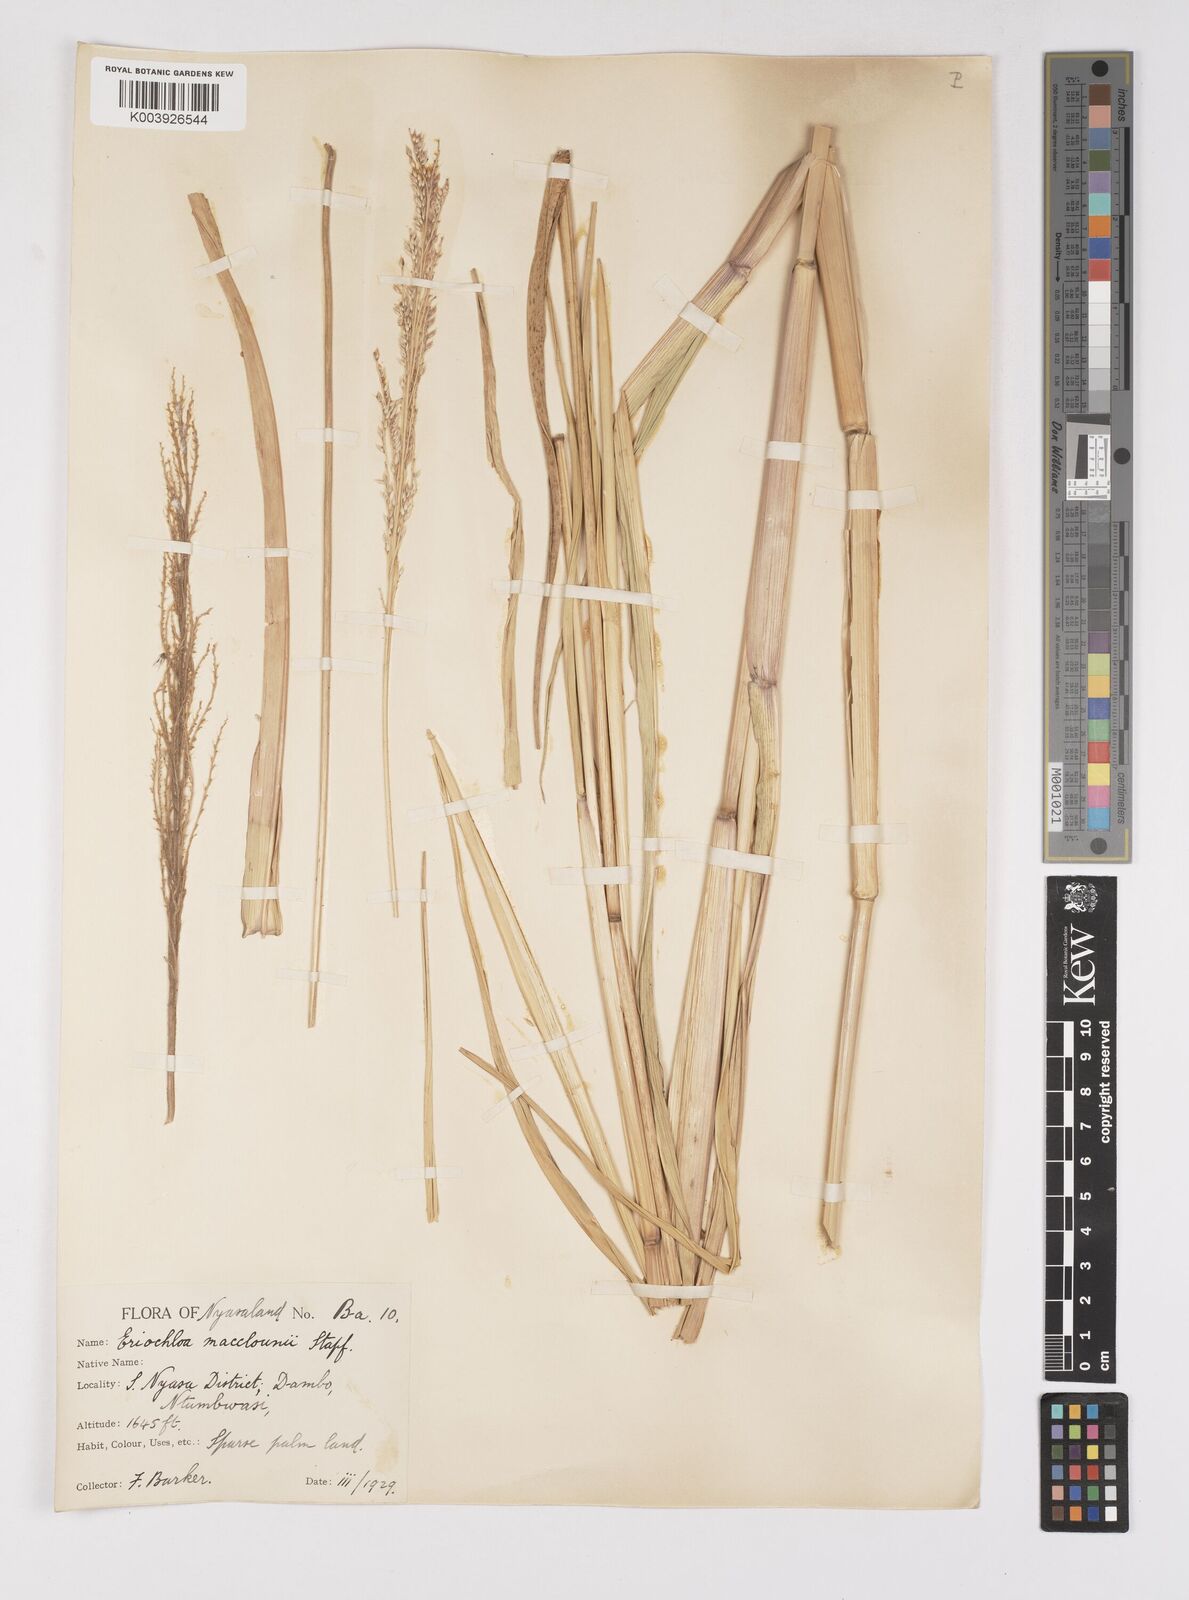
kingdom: Plantae
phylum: Tracheophyta
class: Liliopsida
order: Poales
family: Poaceae
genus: Eriochloa
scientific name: Eriochloa macclounii
